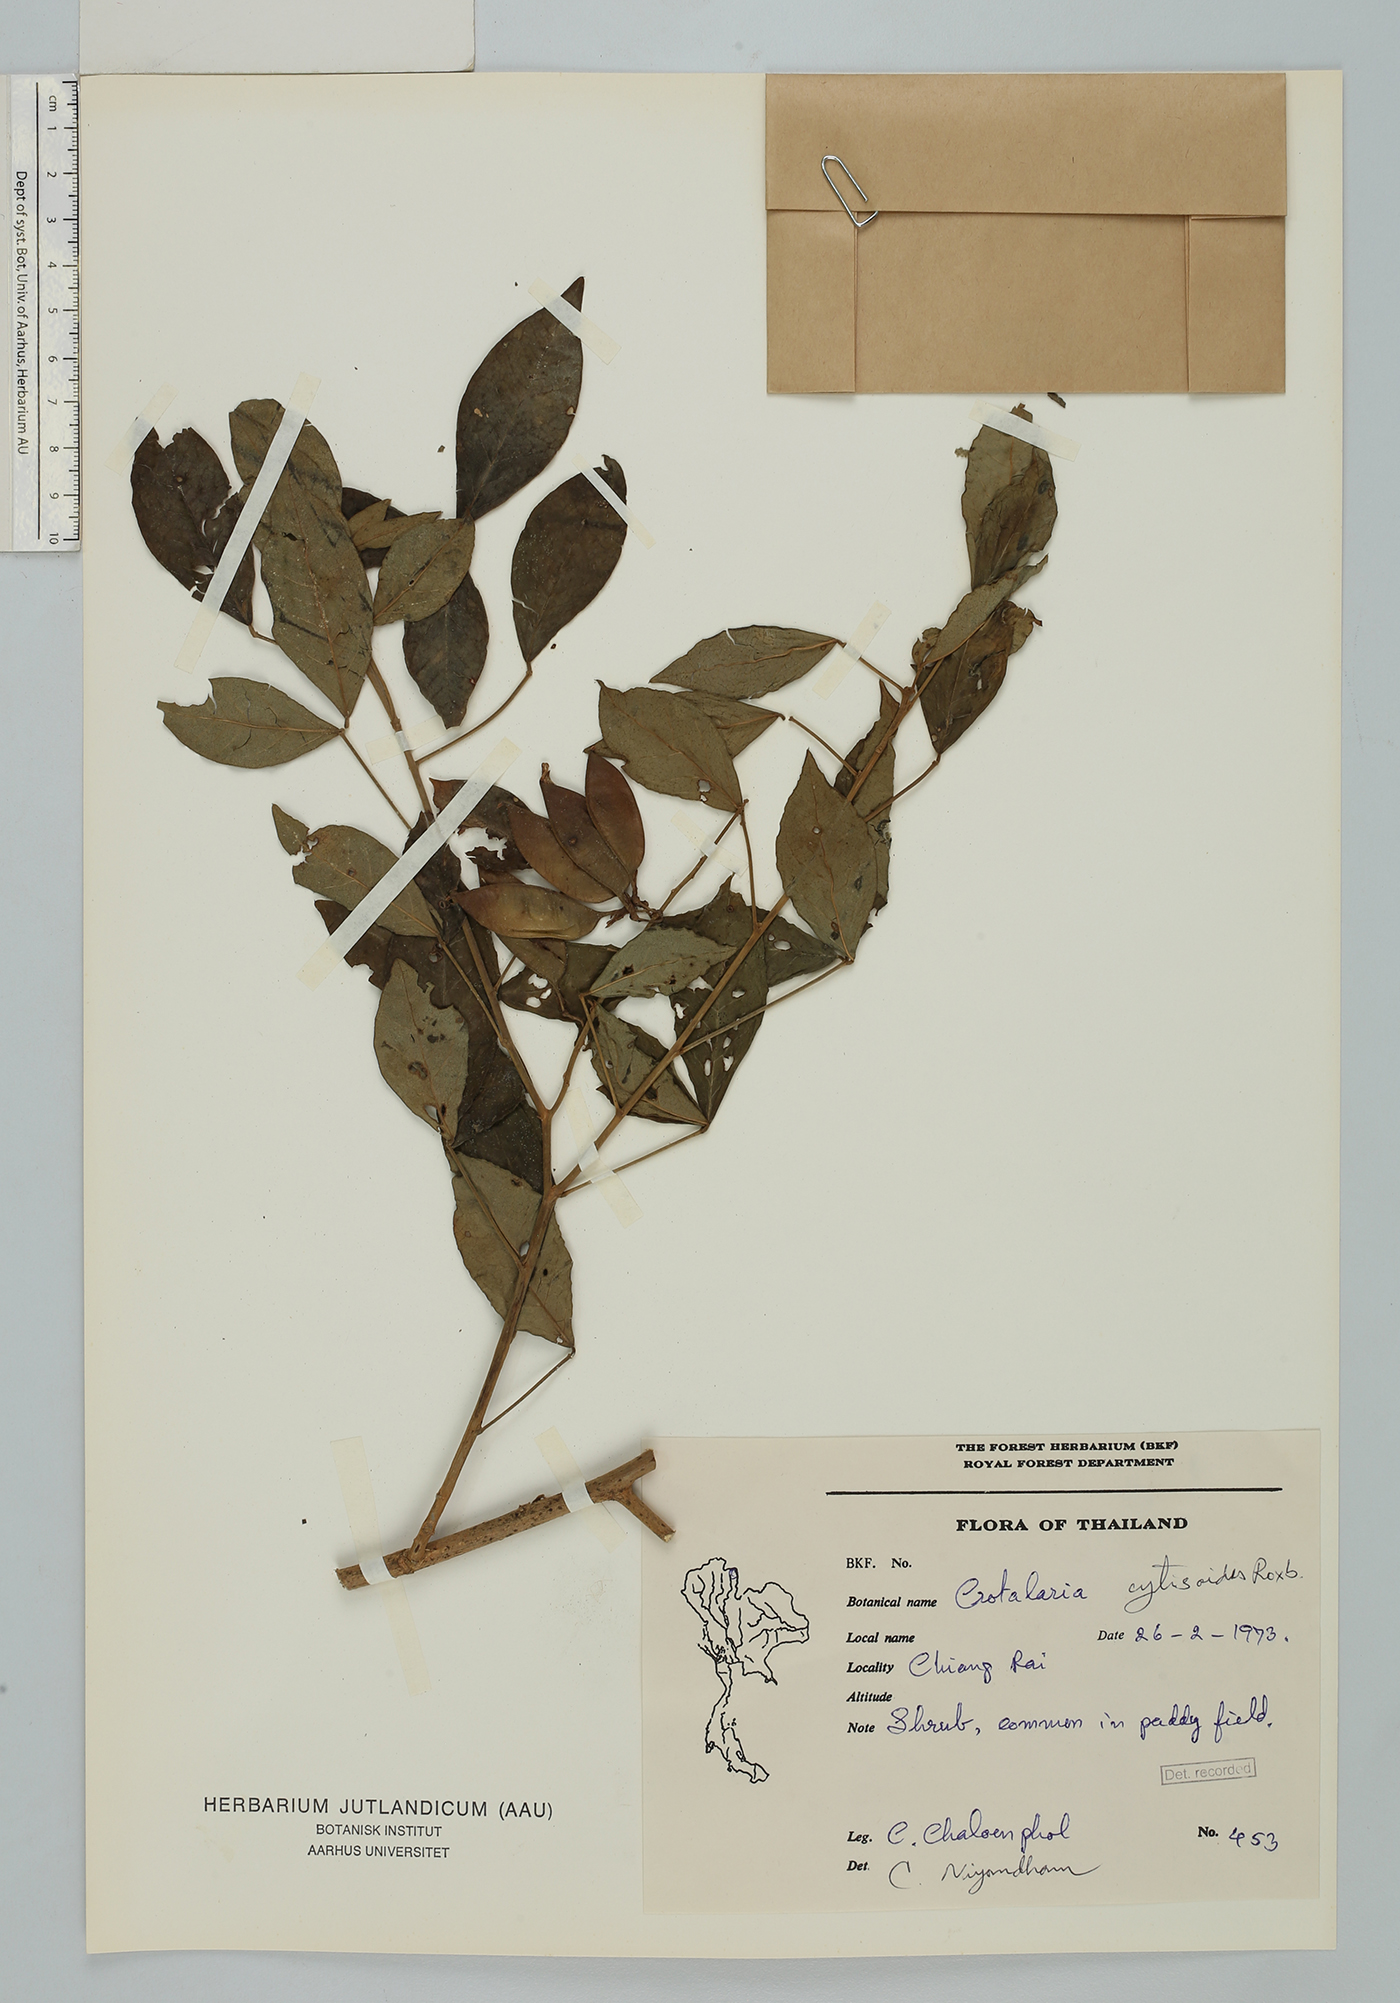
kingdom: Plantae
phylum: Tracheophyta
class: Magnoliopsida
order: Fabales
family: Fabaceae
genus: Crotalaria
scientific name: Crotalaria cytisoides
